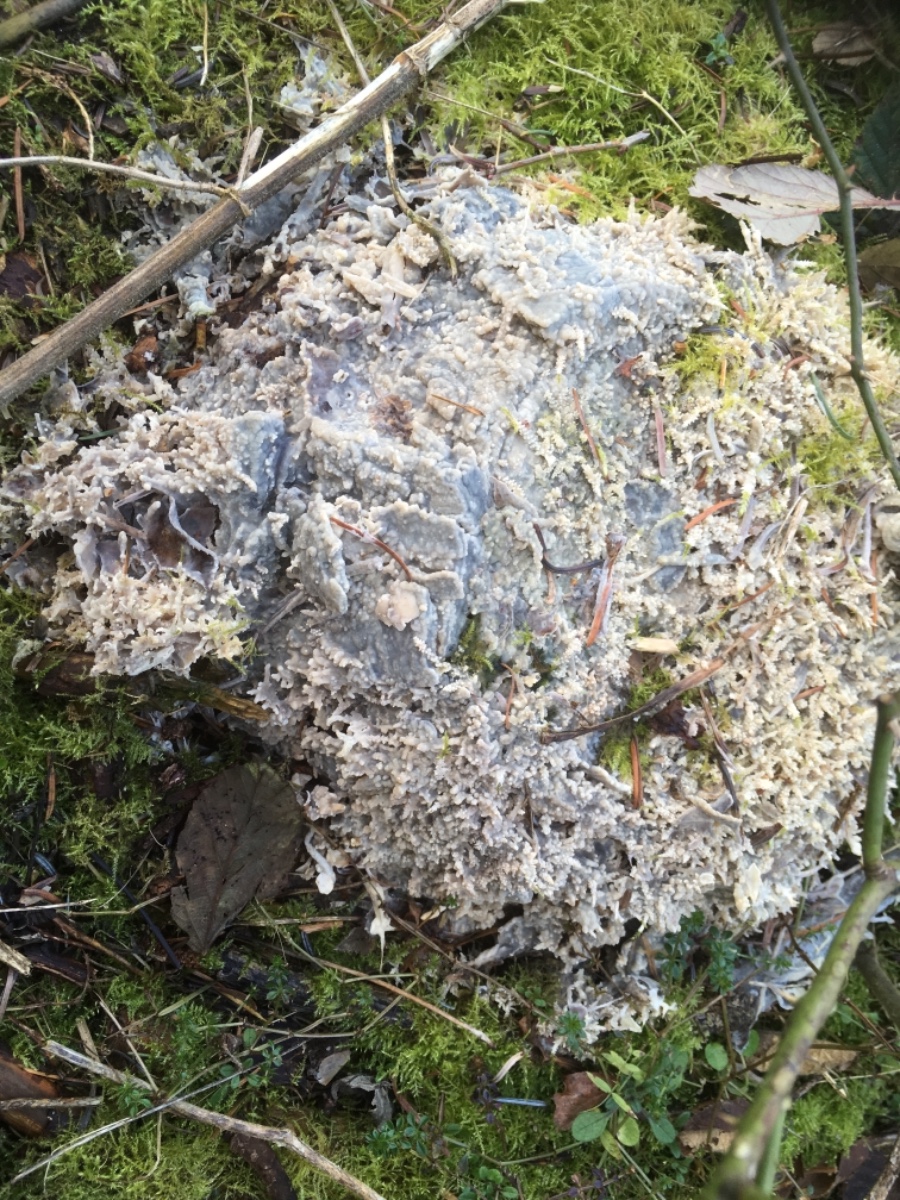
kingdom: Fungi
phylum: Basidiomycota
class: Agaricomycetes
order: Polyporales
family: Phanerochaetaceae
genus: Phlebiopsis
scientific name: Phlebiopsis gigantea
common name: kæmpebarksvamp
